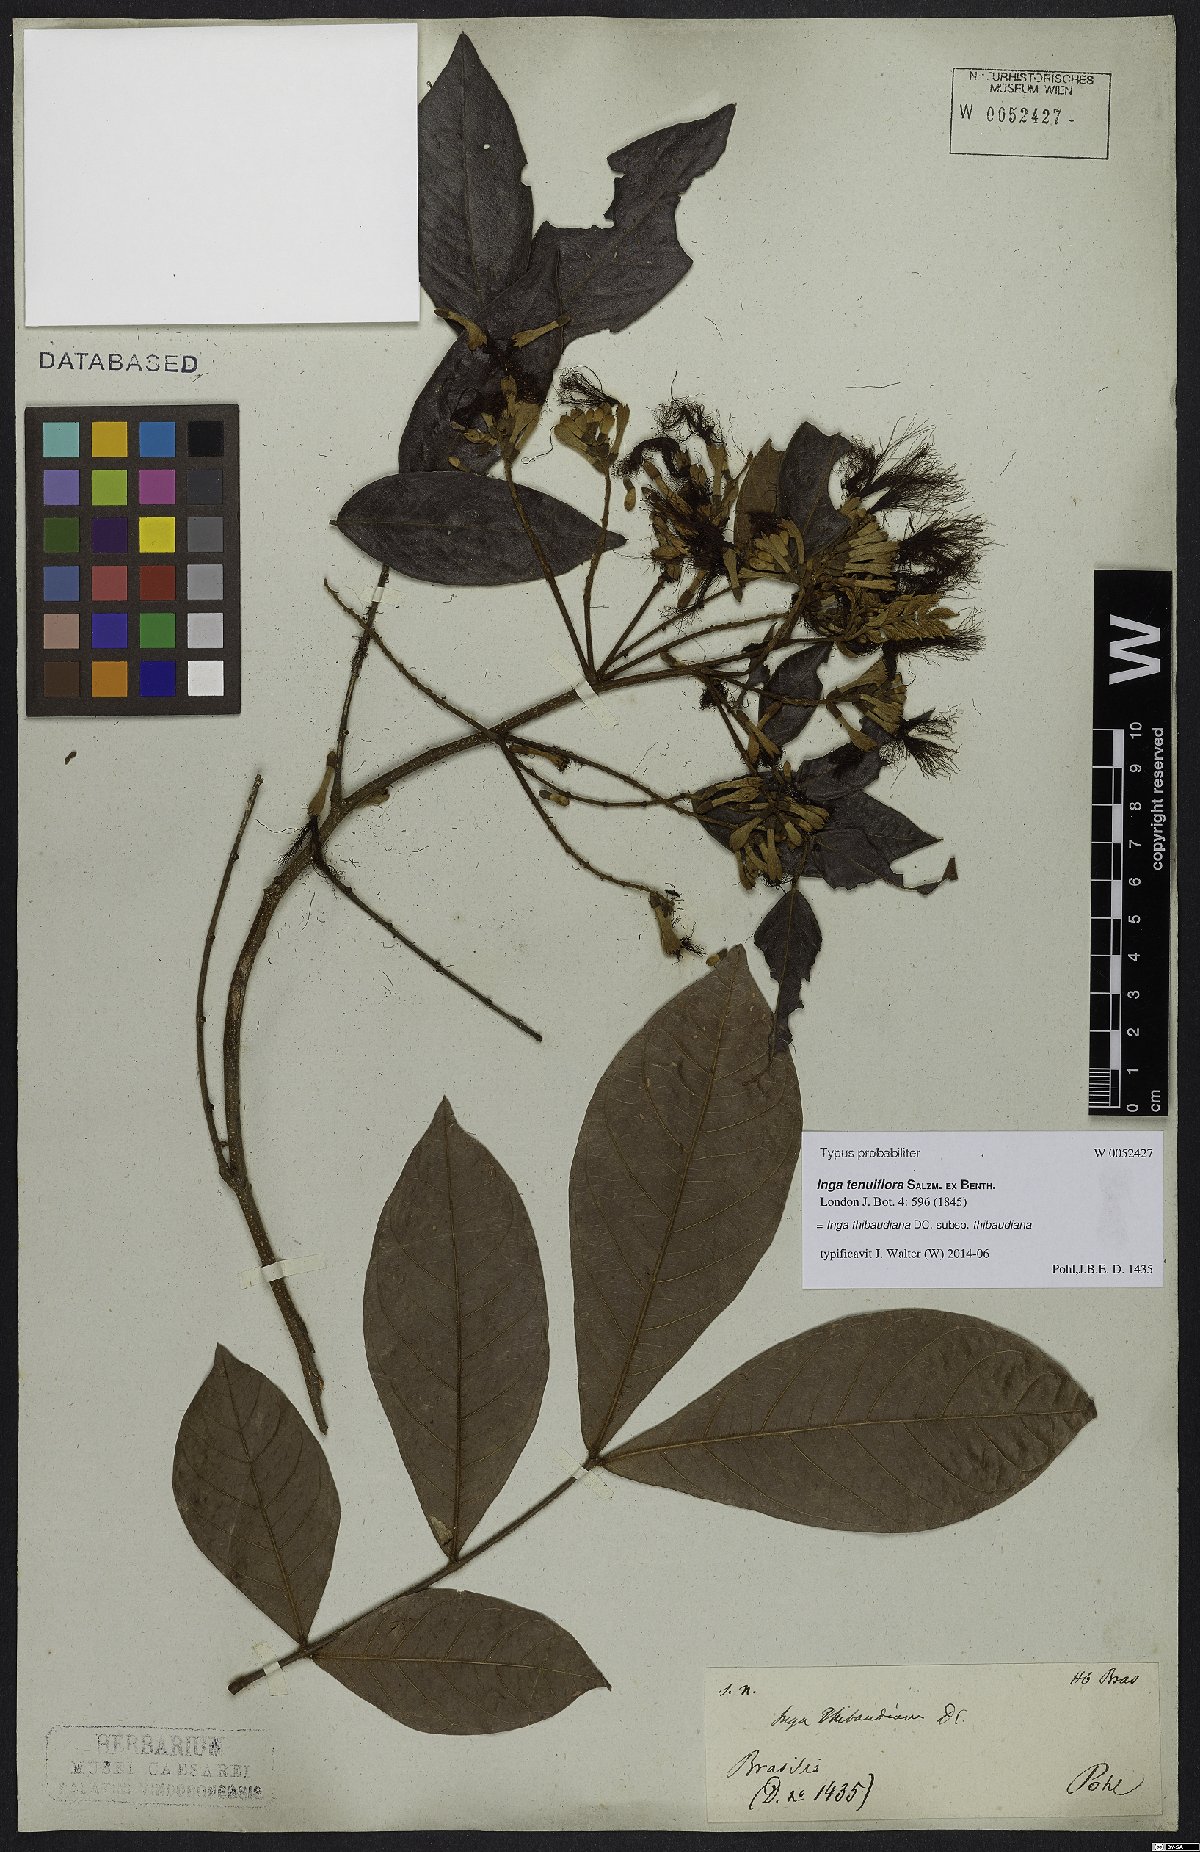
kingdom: Plantae
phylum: Tracheophyta
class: Magnoliopsida
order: Fabales
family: Fabaceae
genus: Inga
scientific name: Inga thibaudiana
